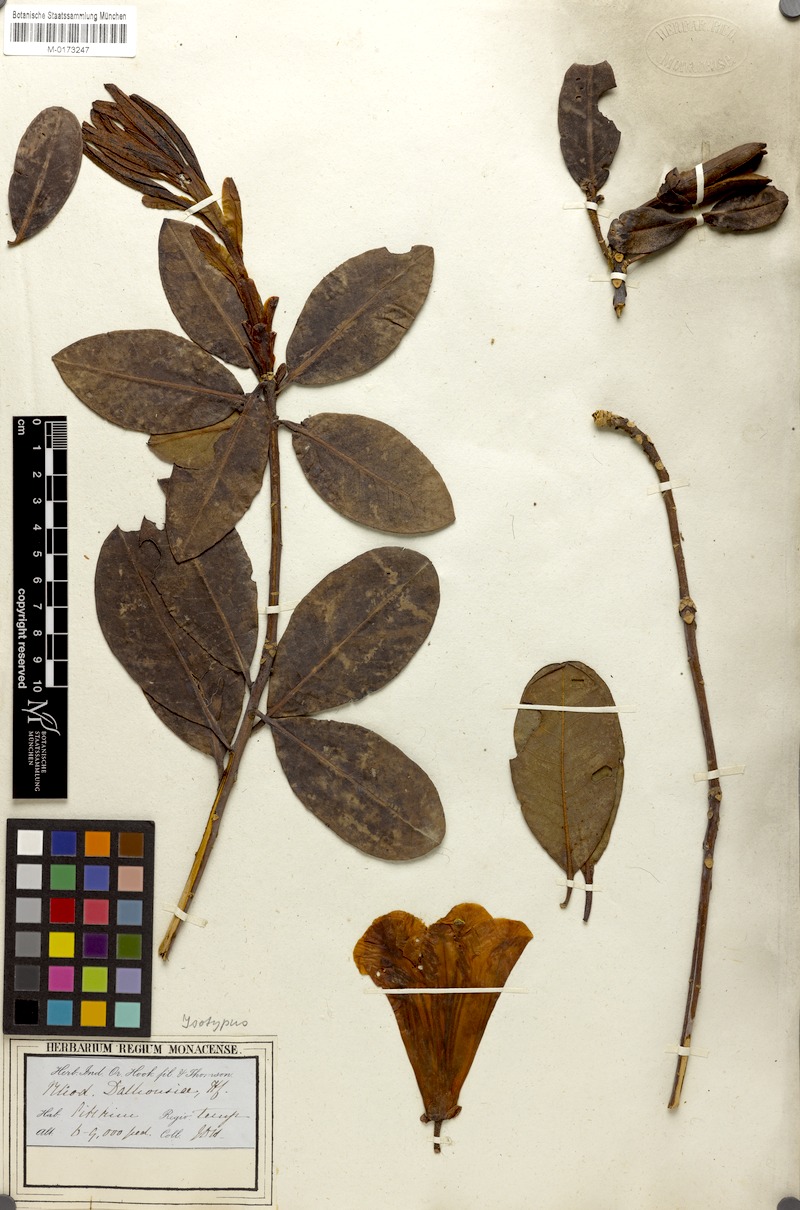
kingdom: Plantae
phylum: Tracheophyta
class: Magnoliopsida
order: Ericales
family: Ericaceae
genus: Rhododendron
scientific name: Rhododendron dalhousieae
